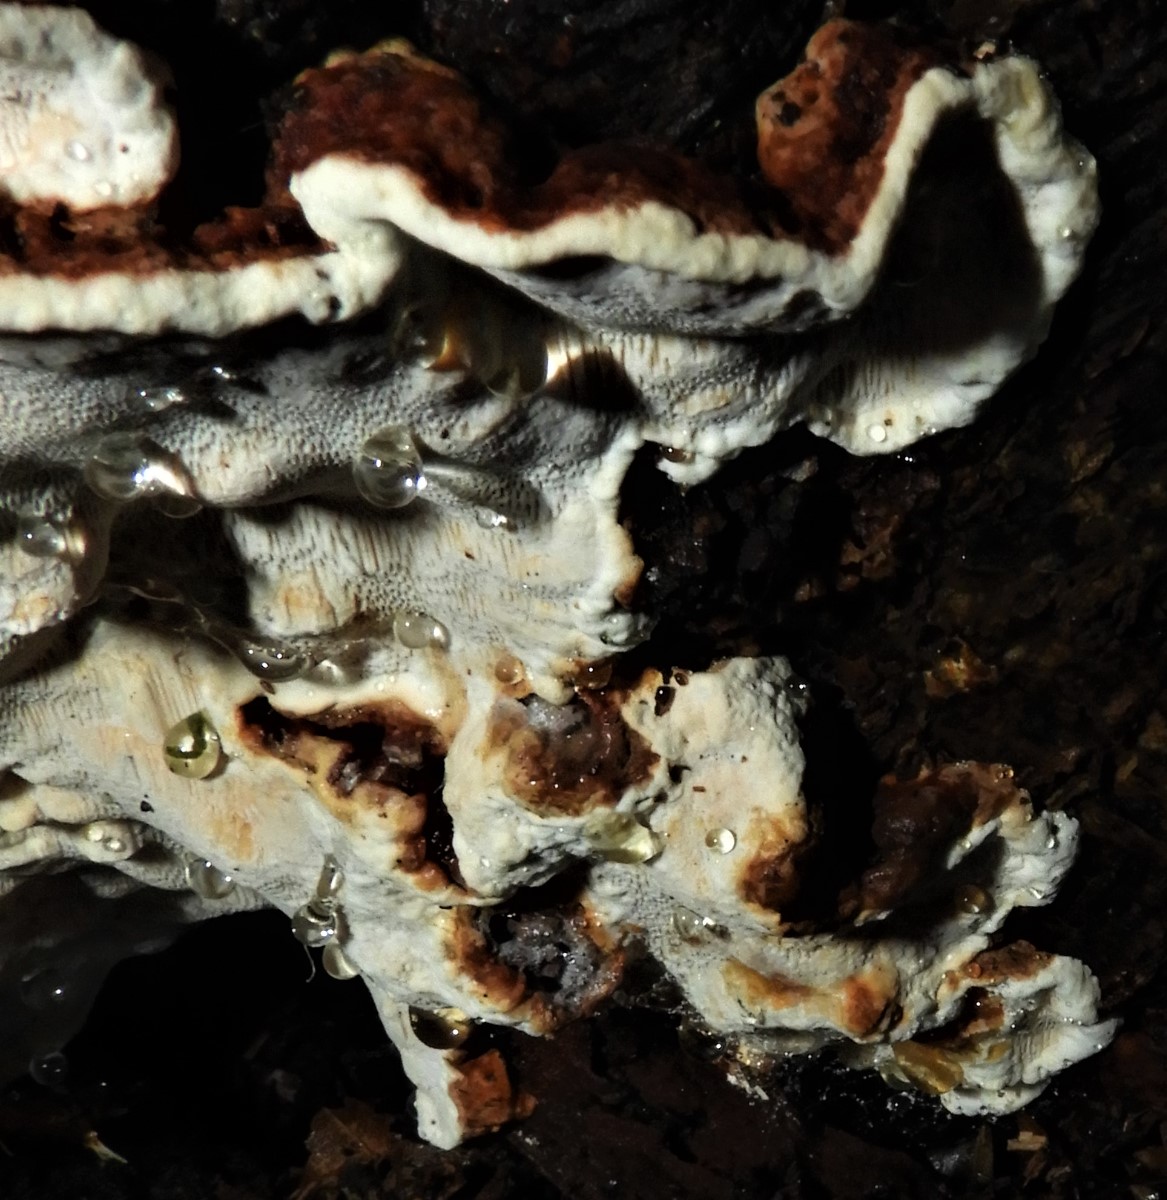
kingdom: Fungi
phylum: Basidiomycota
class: Agaricomycetes
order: Russulales
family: Bondarzewiaceae
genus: Heterobasidion
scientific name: Heterobasidion annosum
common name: almindelig rodfordærver
